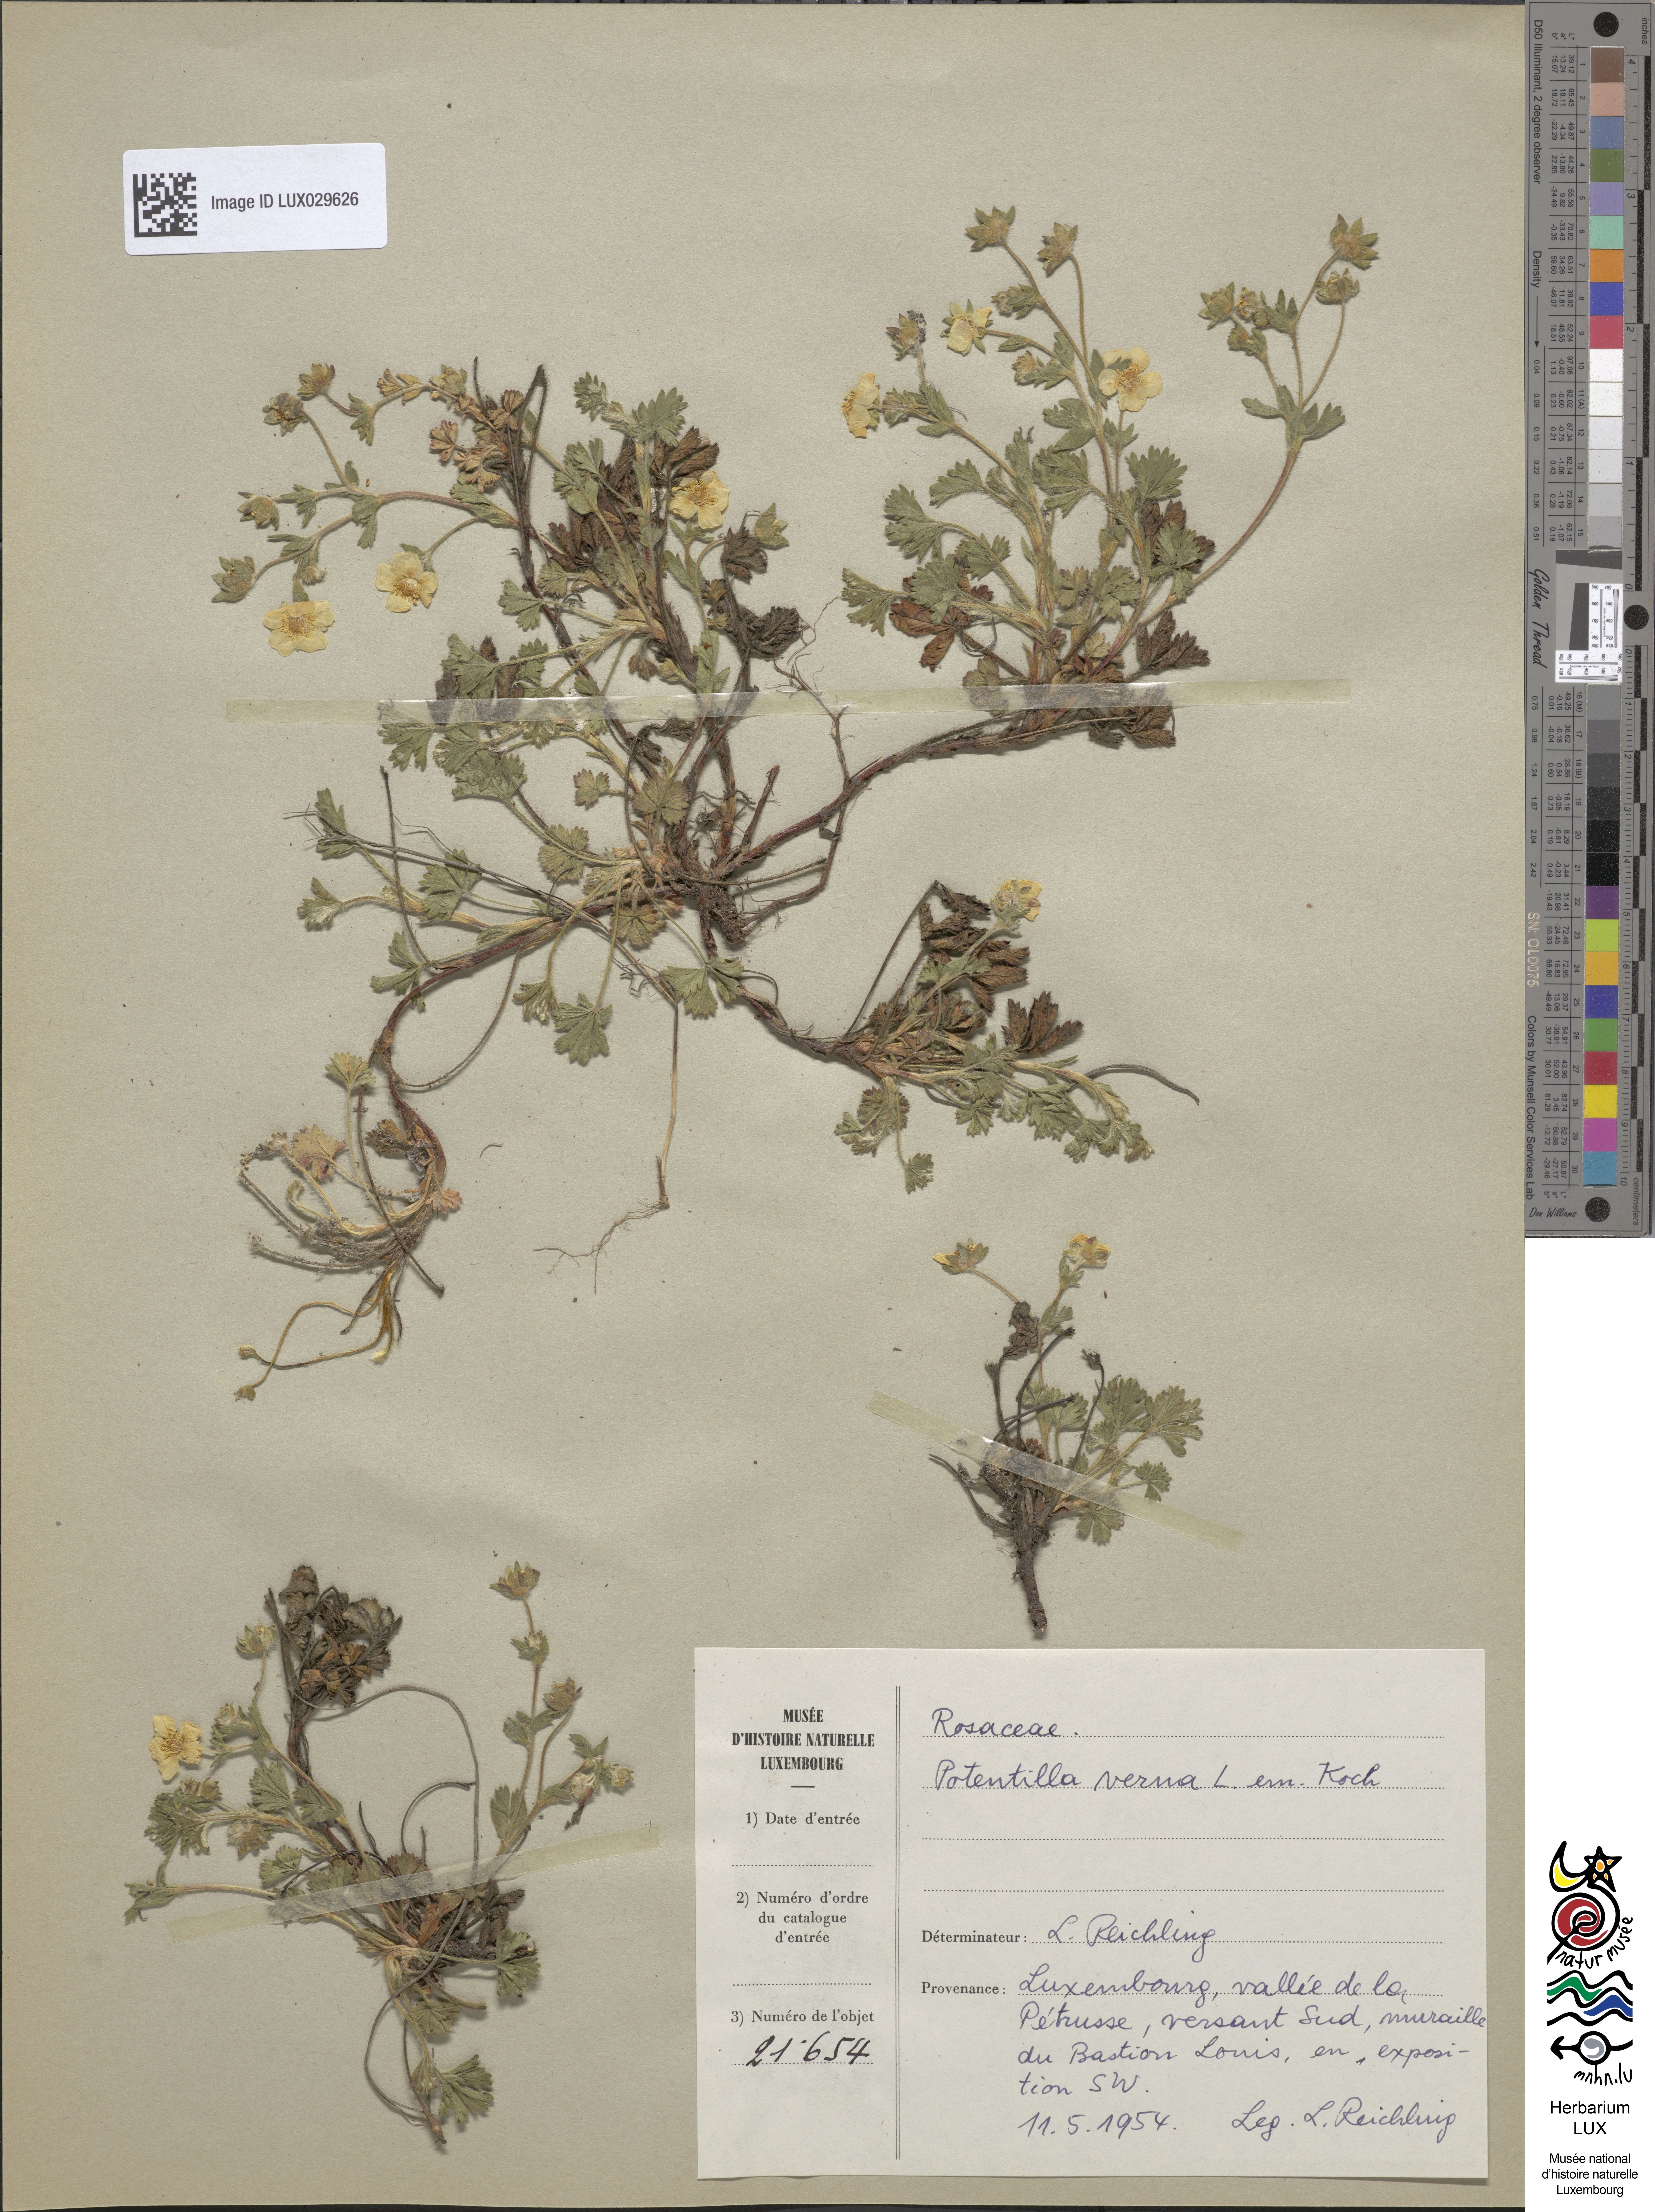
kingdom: Plantae
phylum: Tracheophyta
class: Magnoliopsida
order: Rosales
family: Rosaceae
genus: Potentilla
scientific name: Potentilla verna
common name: Spring cinquefoil
